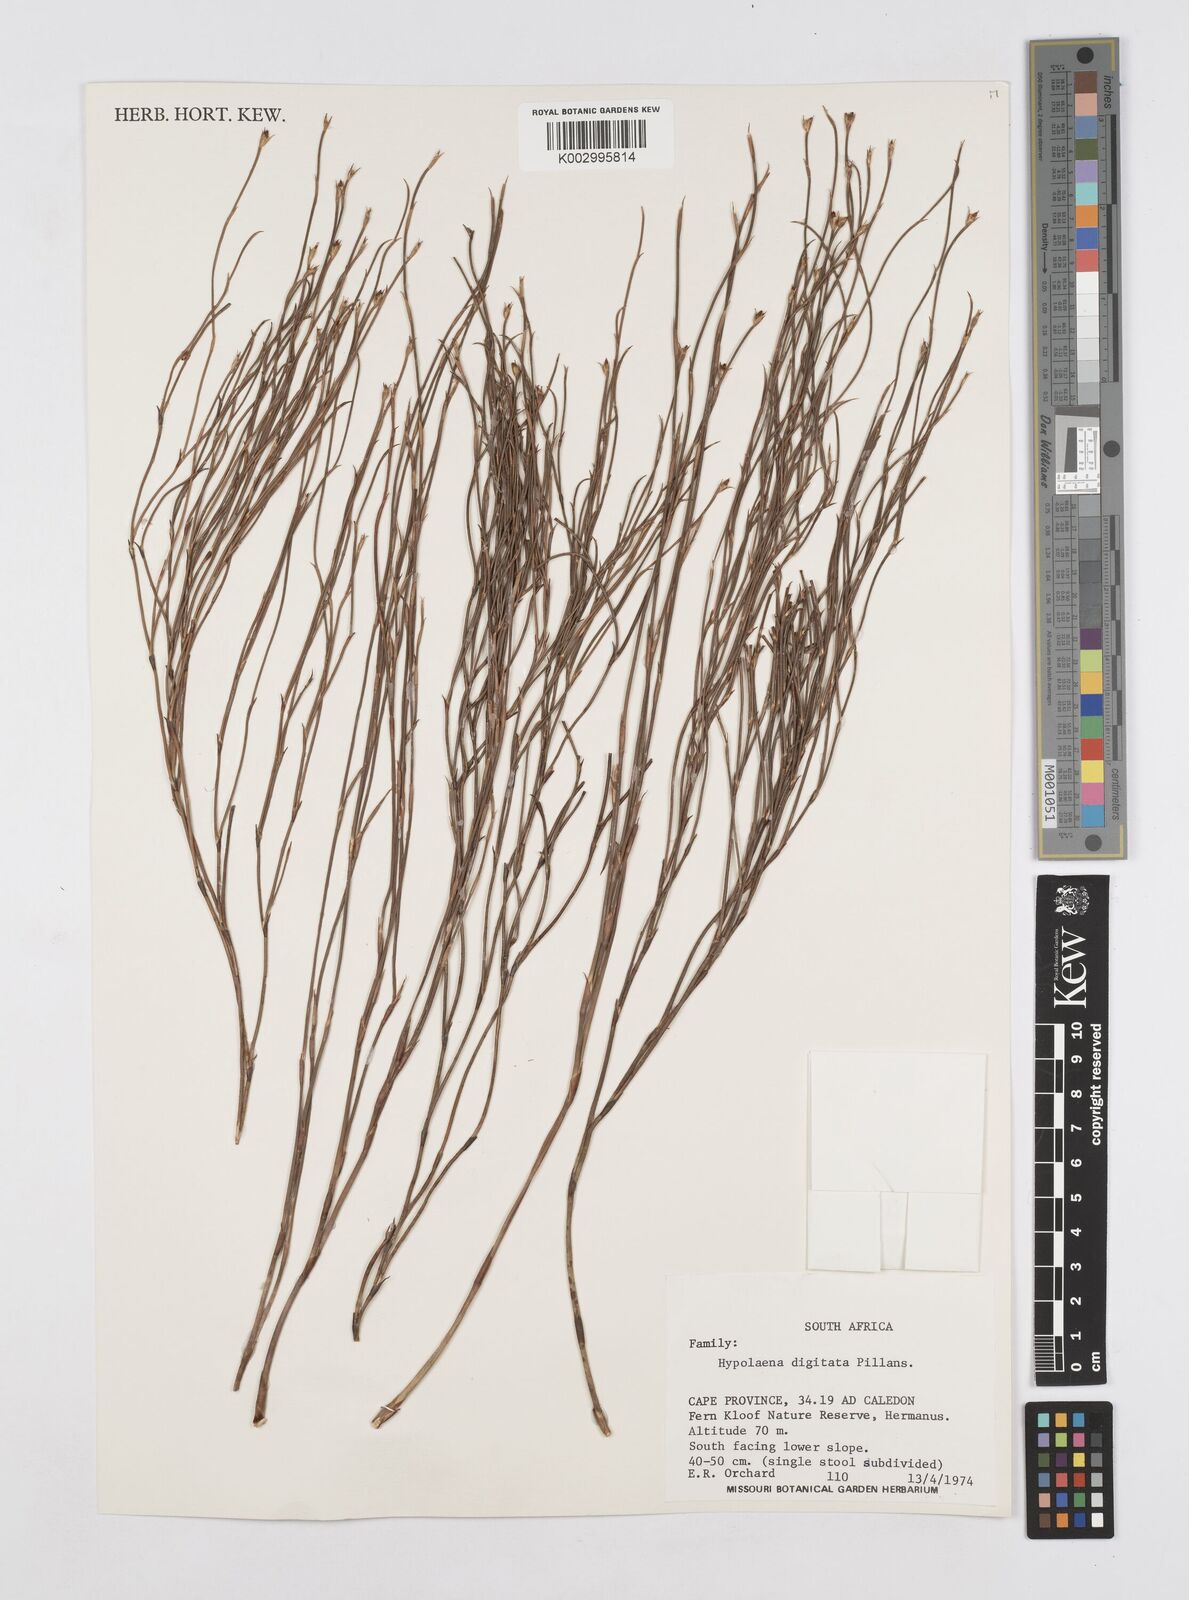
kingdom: Plantae
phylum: Tracheophyta
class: Liliopsida
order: Poales
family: Restionaceae
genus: Mastersiella
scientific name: Mastersiella digitata
